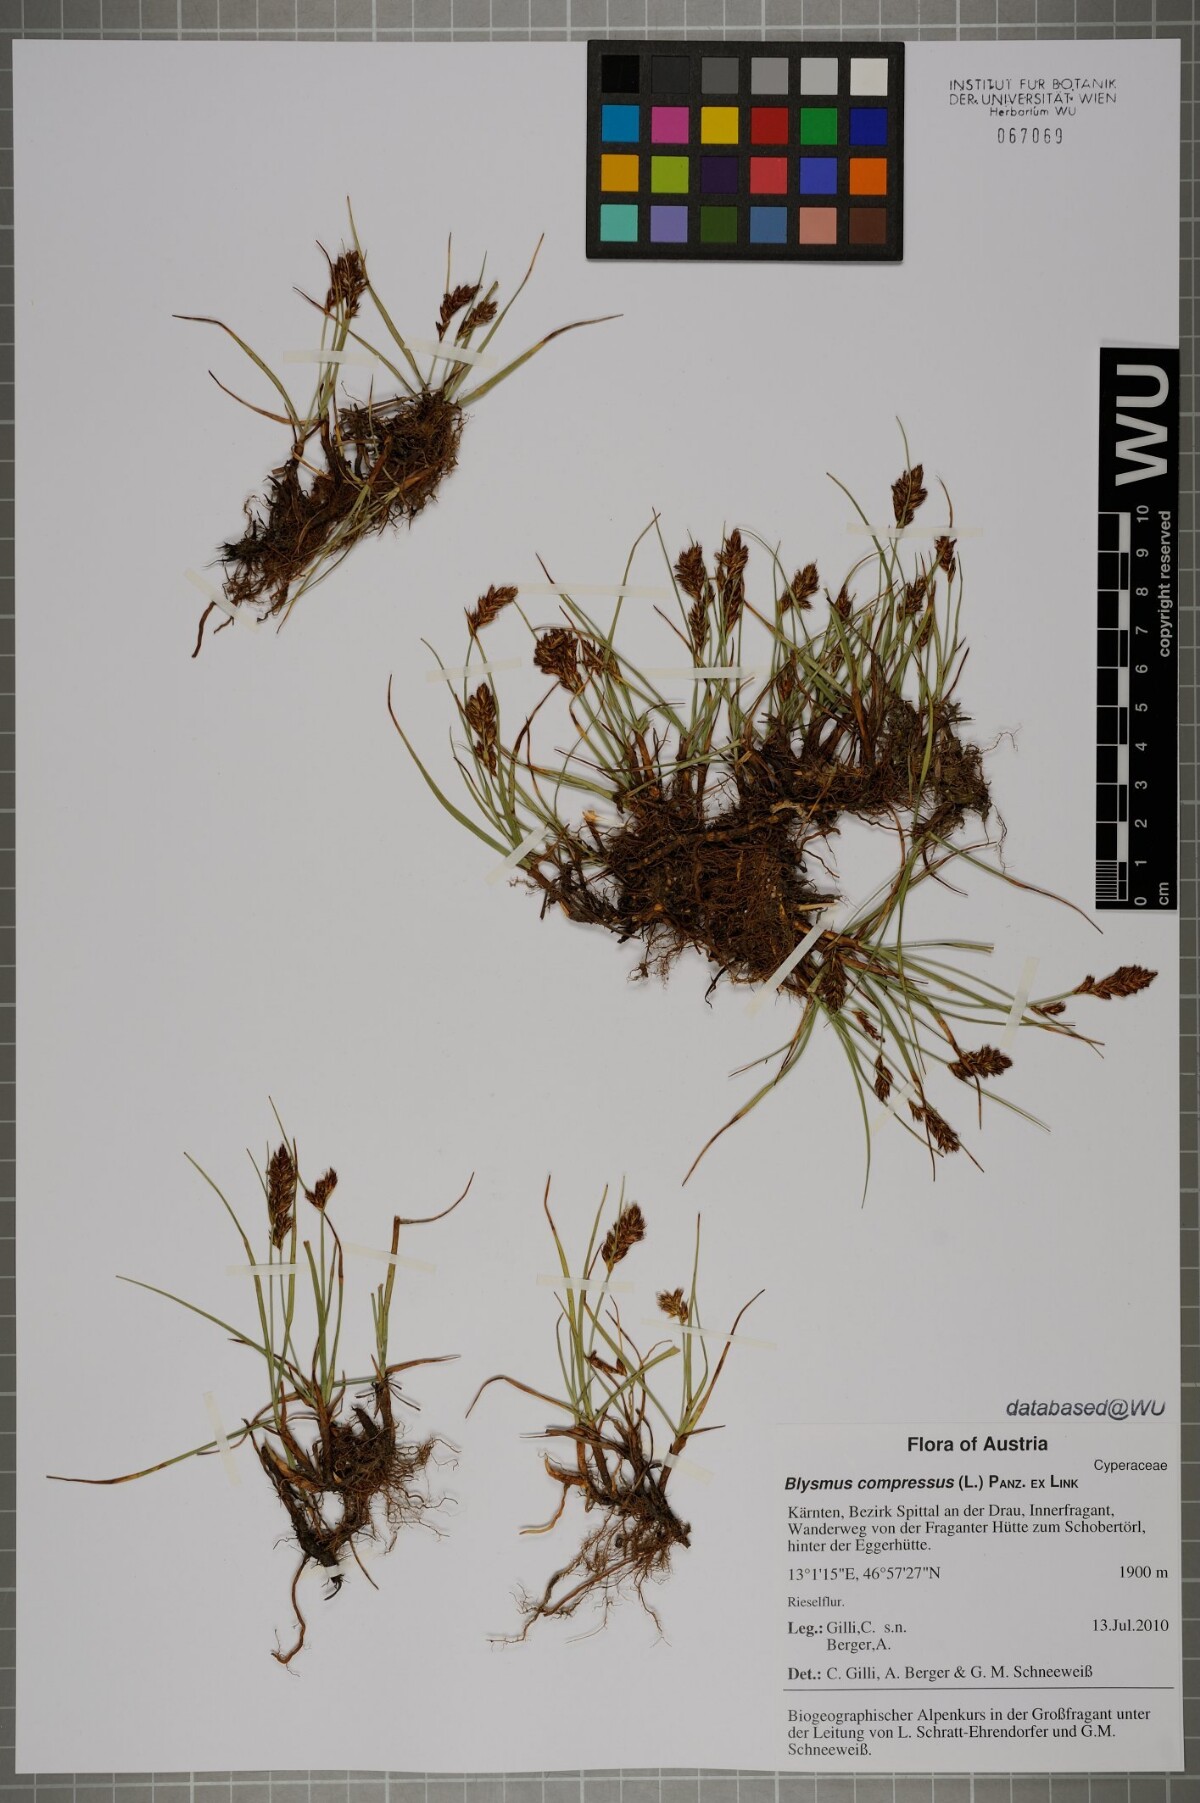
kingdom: Plantae
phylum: Tracheophyta
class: Liliopsida
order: Poales
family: Cyperaceae
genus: Blysmus
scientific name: Blysmus compressus
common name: Flat-sedge
